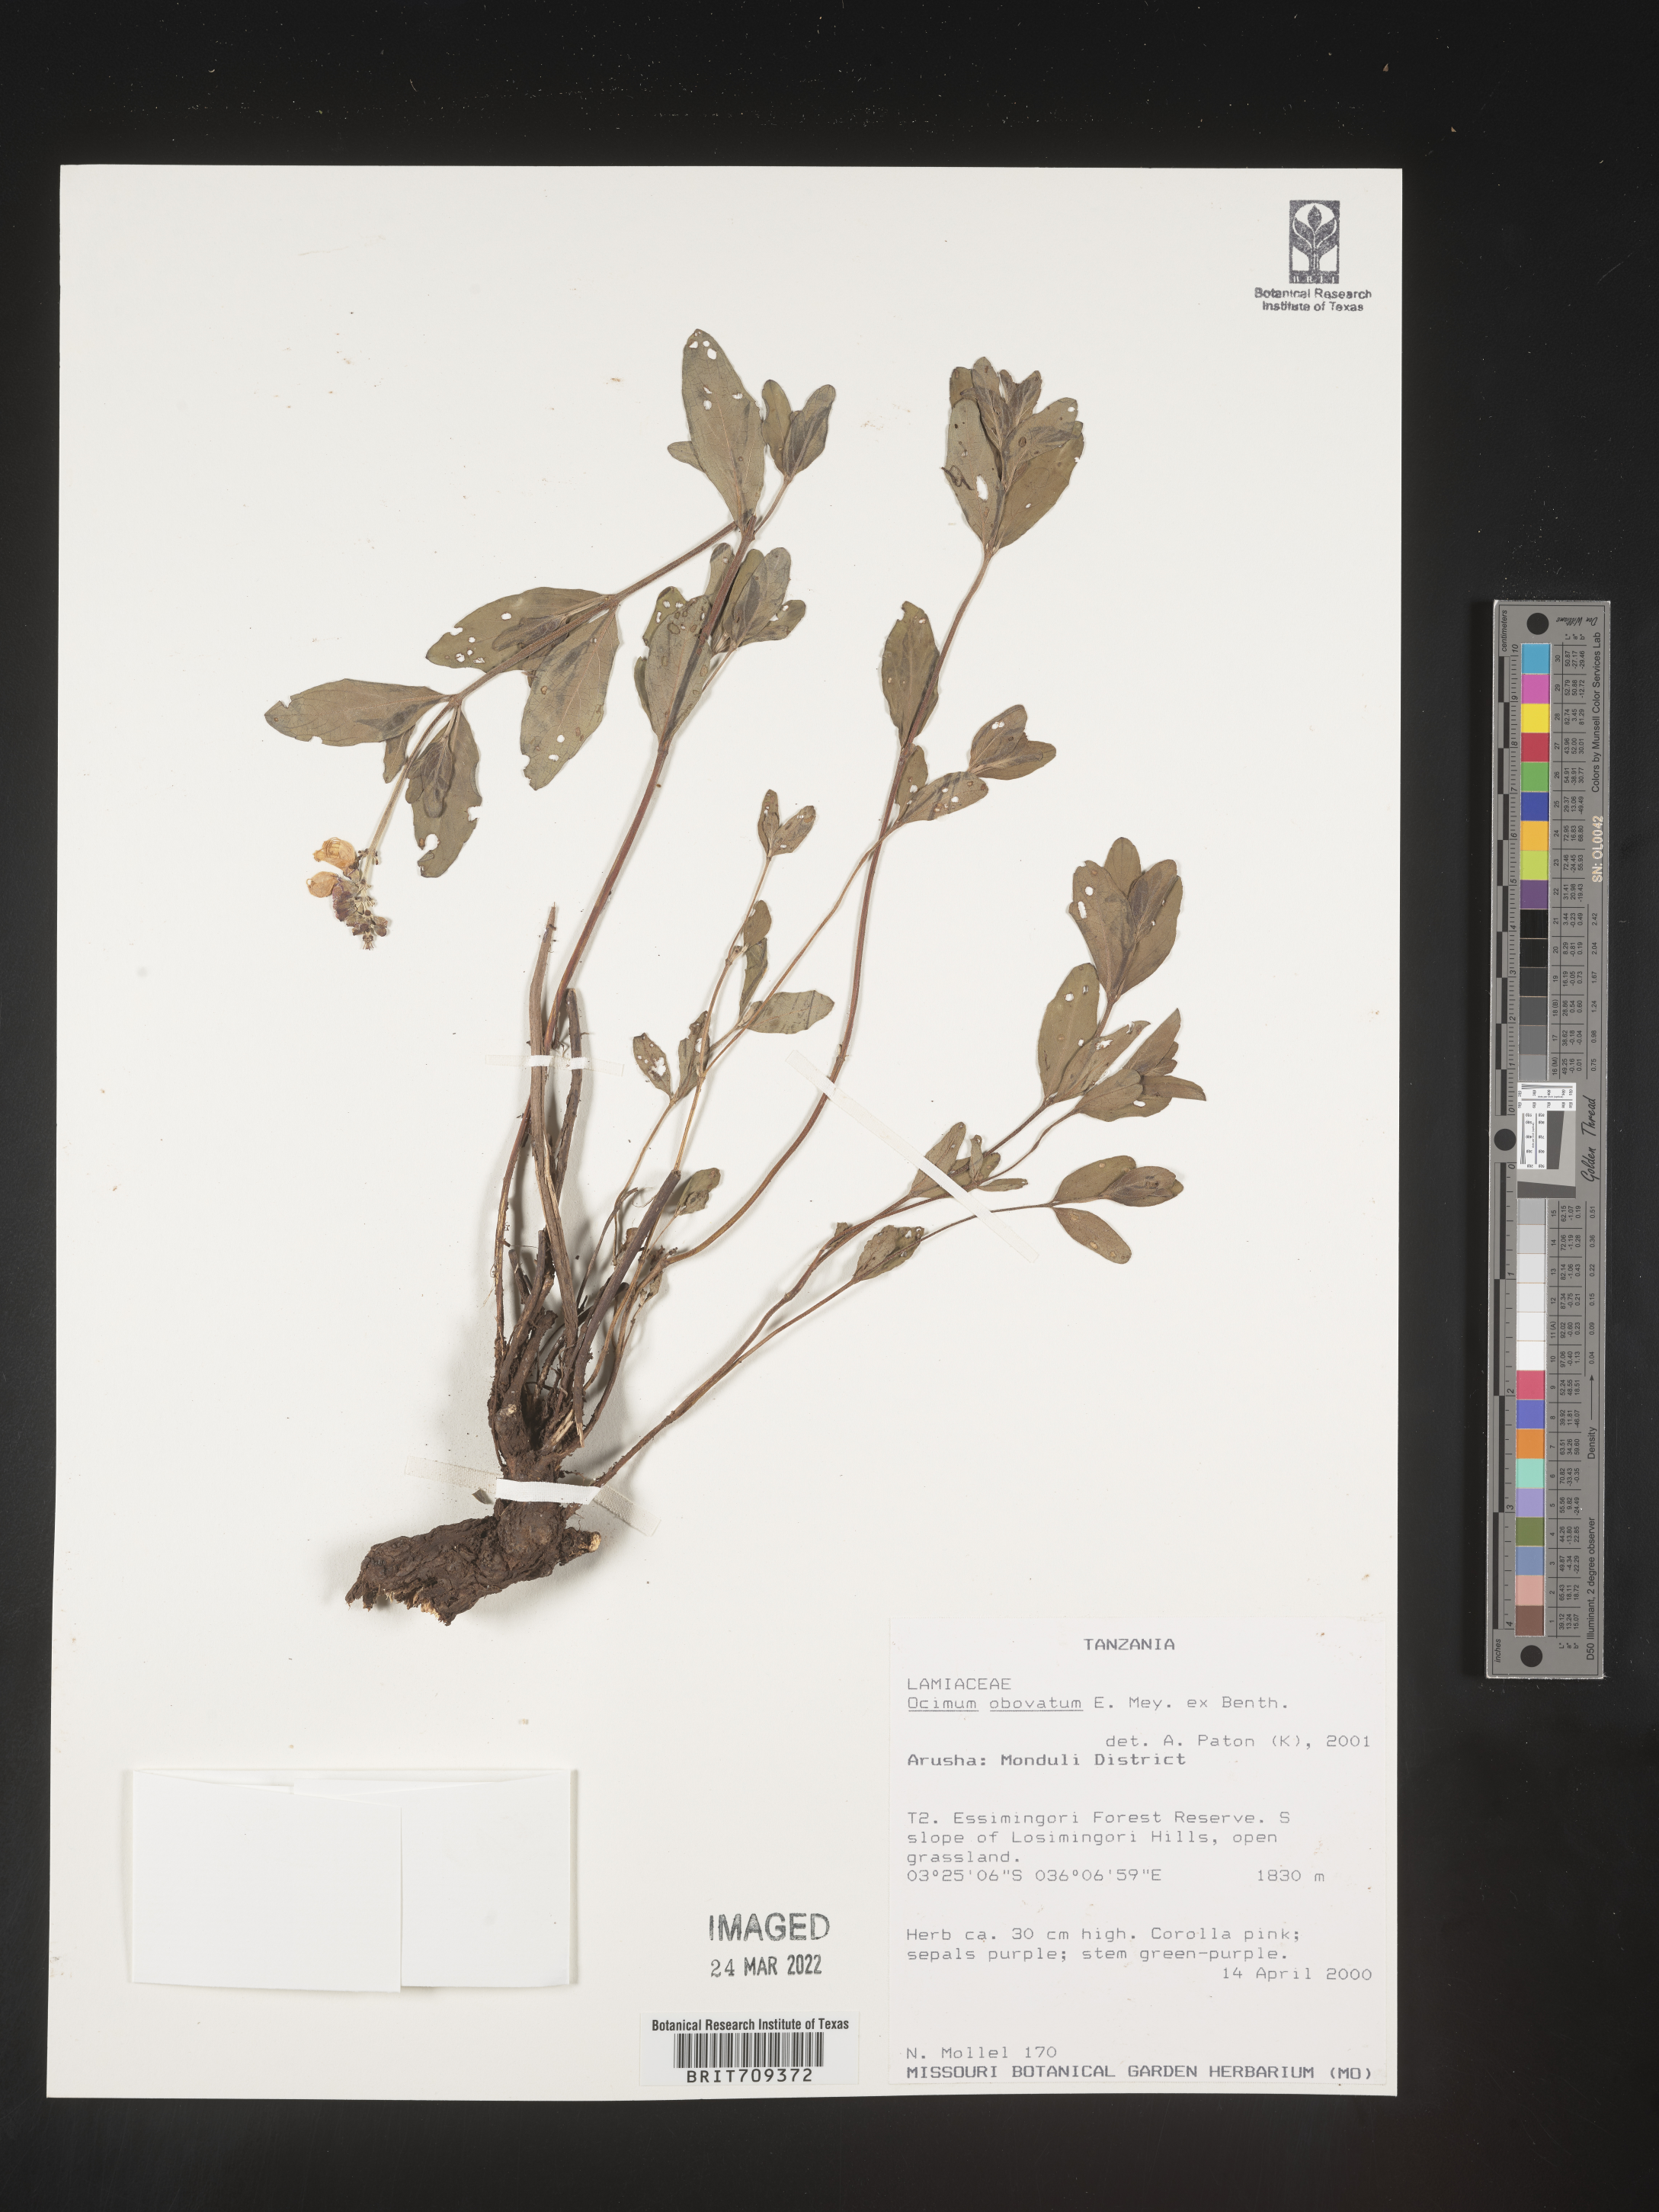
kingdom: Plantae
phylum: Tracheophyta
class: Magnoliopsida
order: Lamiales
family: Lamiaceae
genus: Ocimum
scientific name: Ocimum
